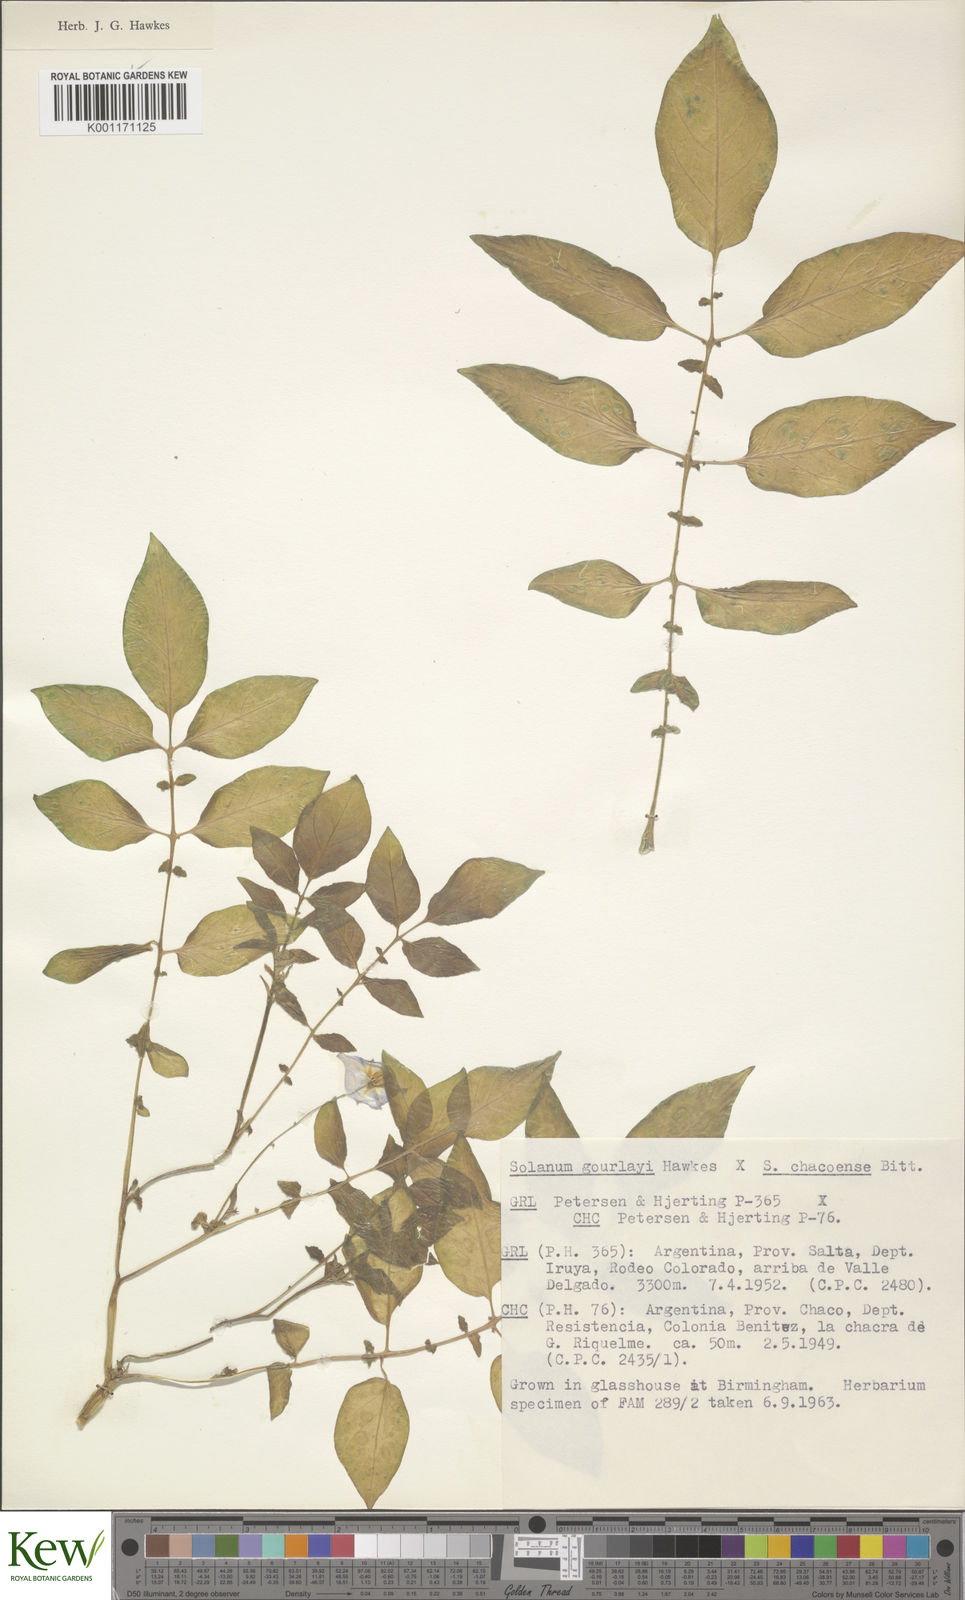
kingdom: Plantae
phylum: Tracheophyta
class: Magnoliopsida
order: Solanales
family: Solanaceae
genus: Solanum
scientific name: Solanum chacoense
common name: Chaco potato
